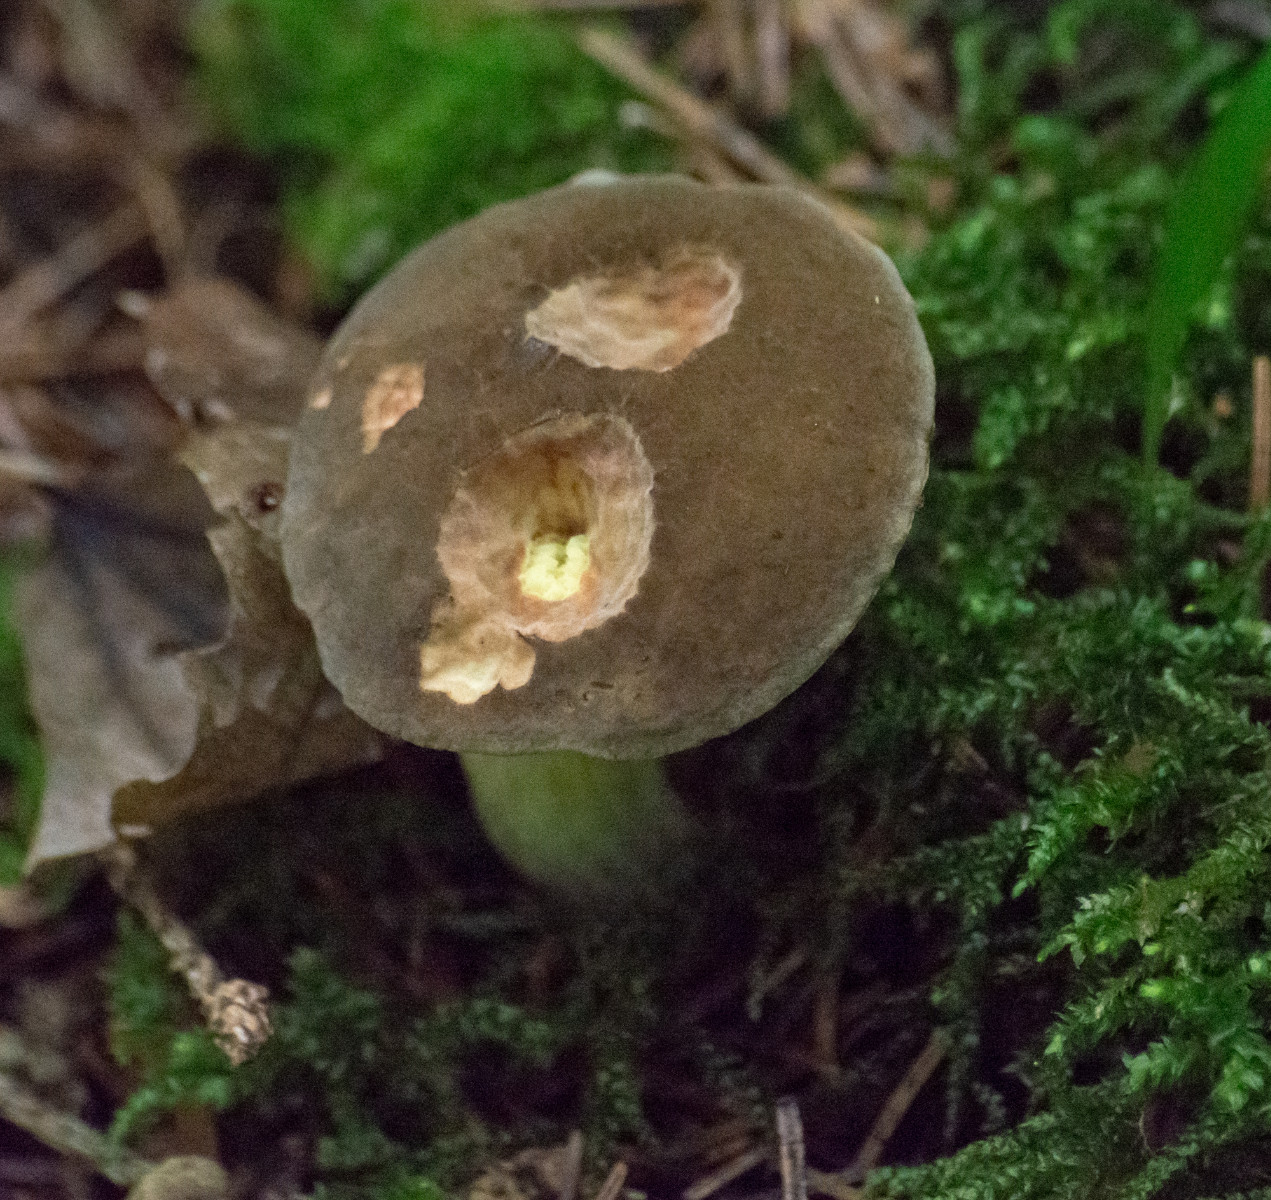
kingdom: Fungi
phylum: Basidiomycota
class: Agaricomycetes
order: Boletales
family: Boletaceae
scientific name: Boletaceae
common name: rørhatfamilien
